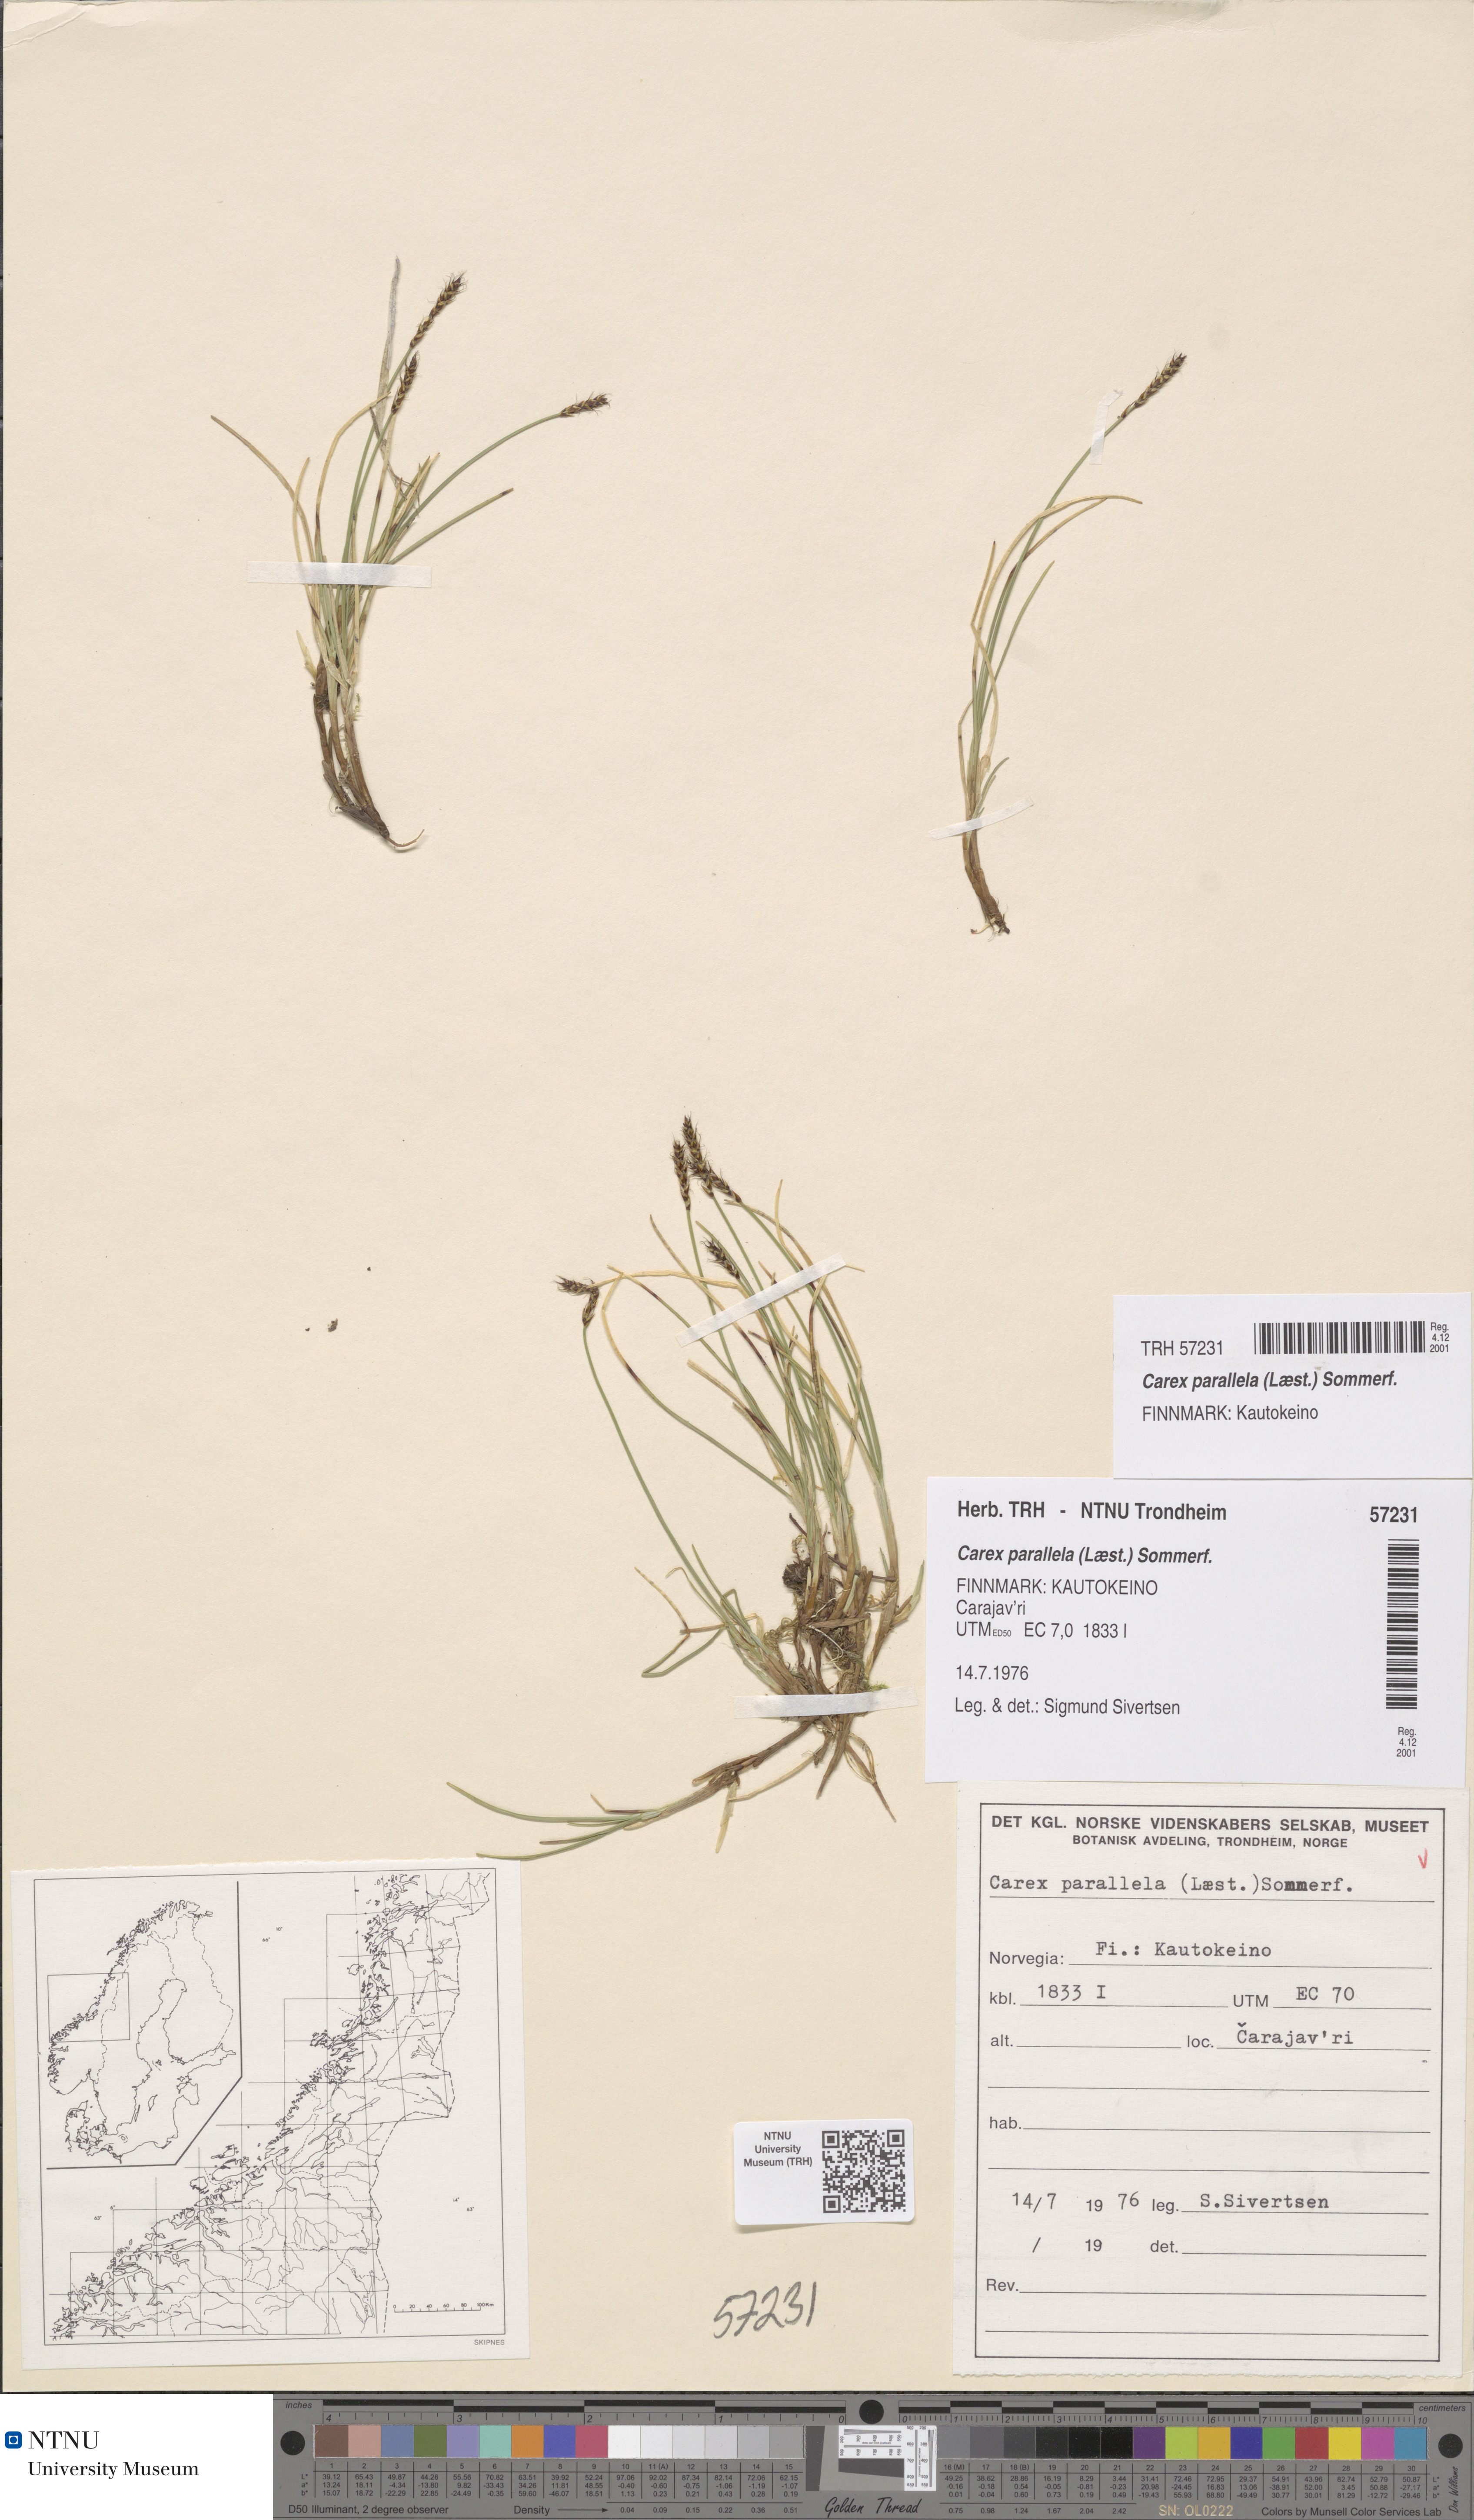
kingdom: Plantae
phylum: Tracheophyta
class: Liliopsida
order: Poales
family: Cyperaceae
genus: Carex
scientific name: Carex parallela
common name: Parallel sedge
